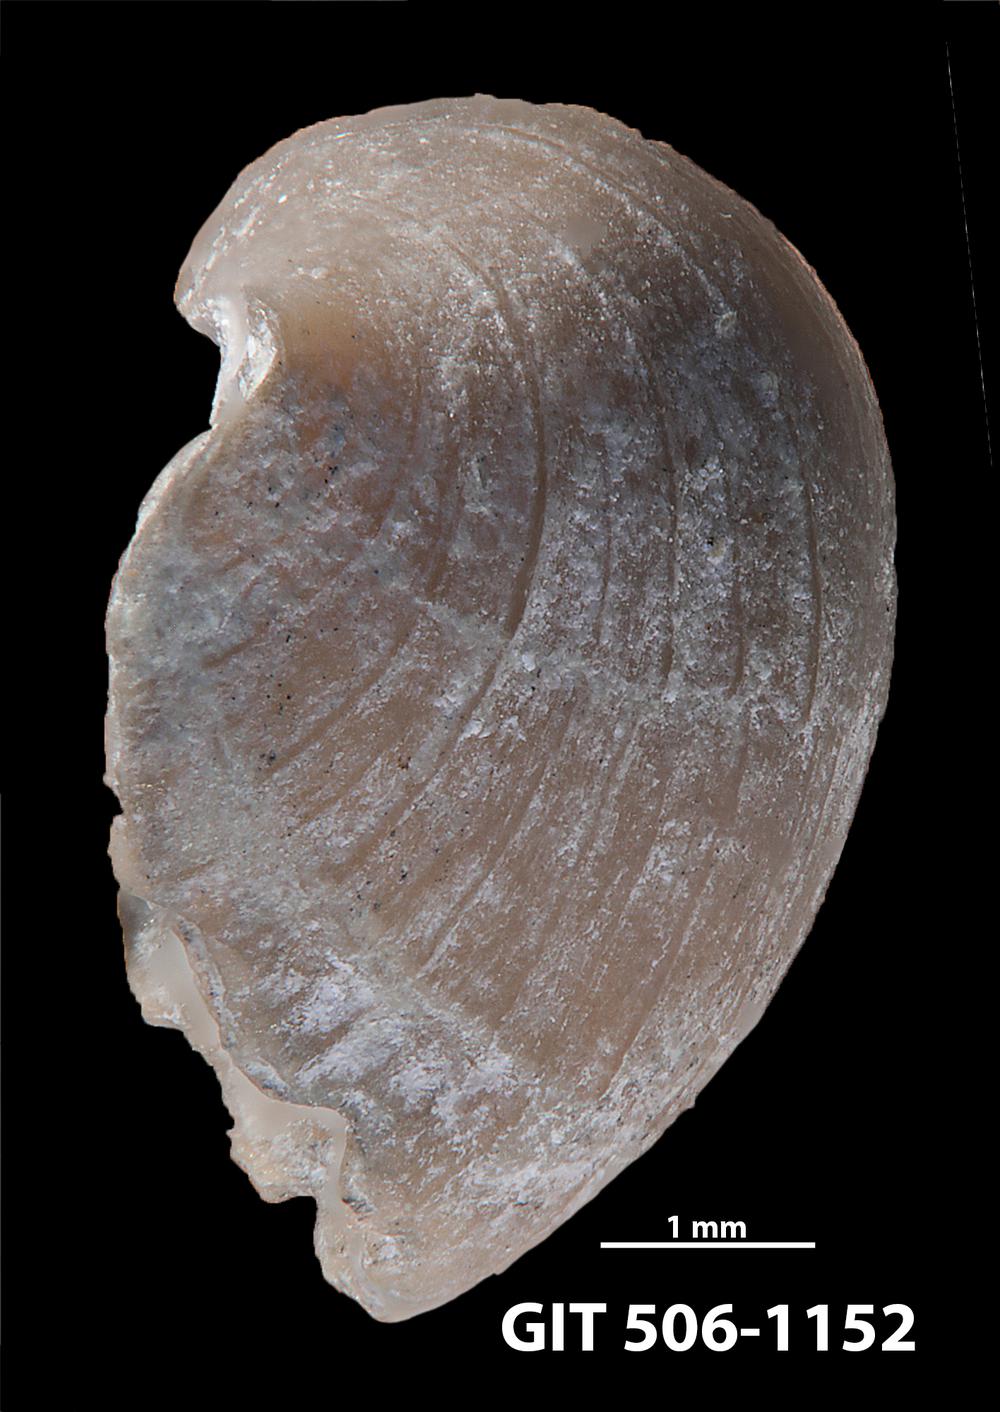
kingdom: Animalia
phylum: Brachiopoda
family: Leptellinidae
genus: Leangella
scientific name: Leangella Plectambonites scissa
